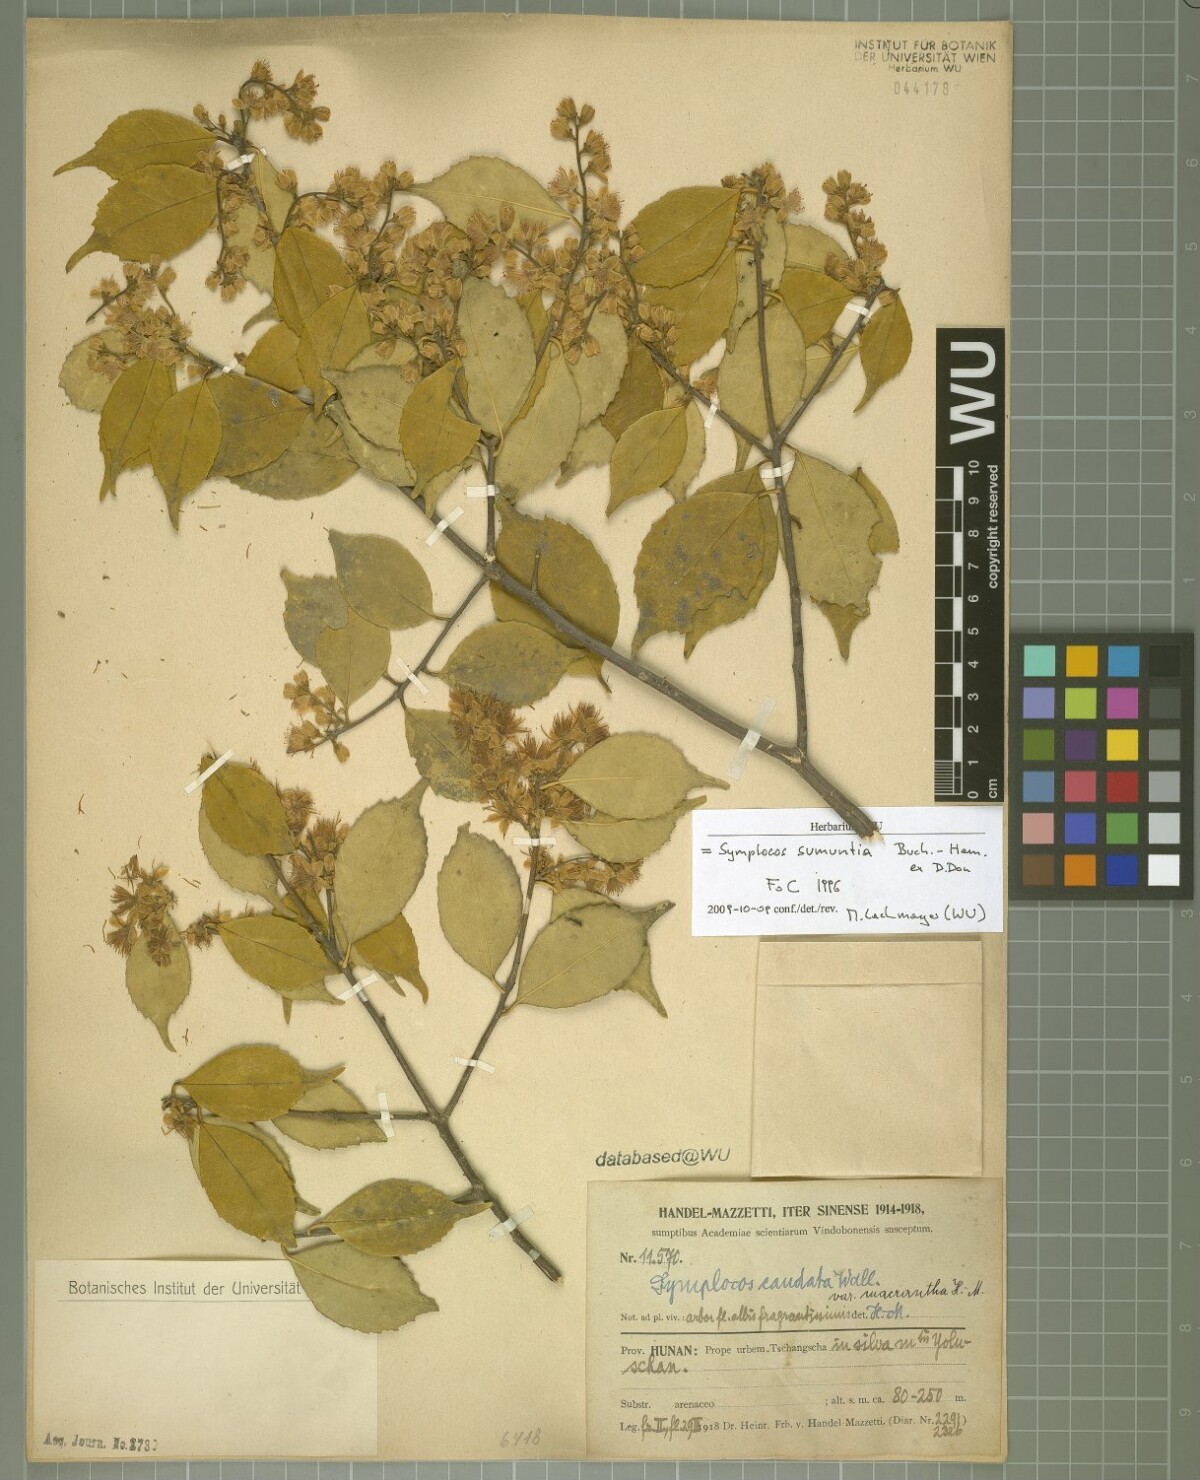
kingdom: Plantae
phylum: Tracheophyta
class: Magnoliopsida
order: Ericales
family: Symplocaceae
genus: Symplocos
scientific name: Symplocos sumuntia
